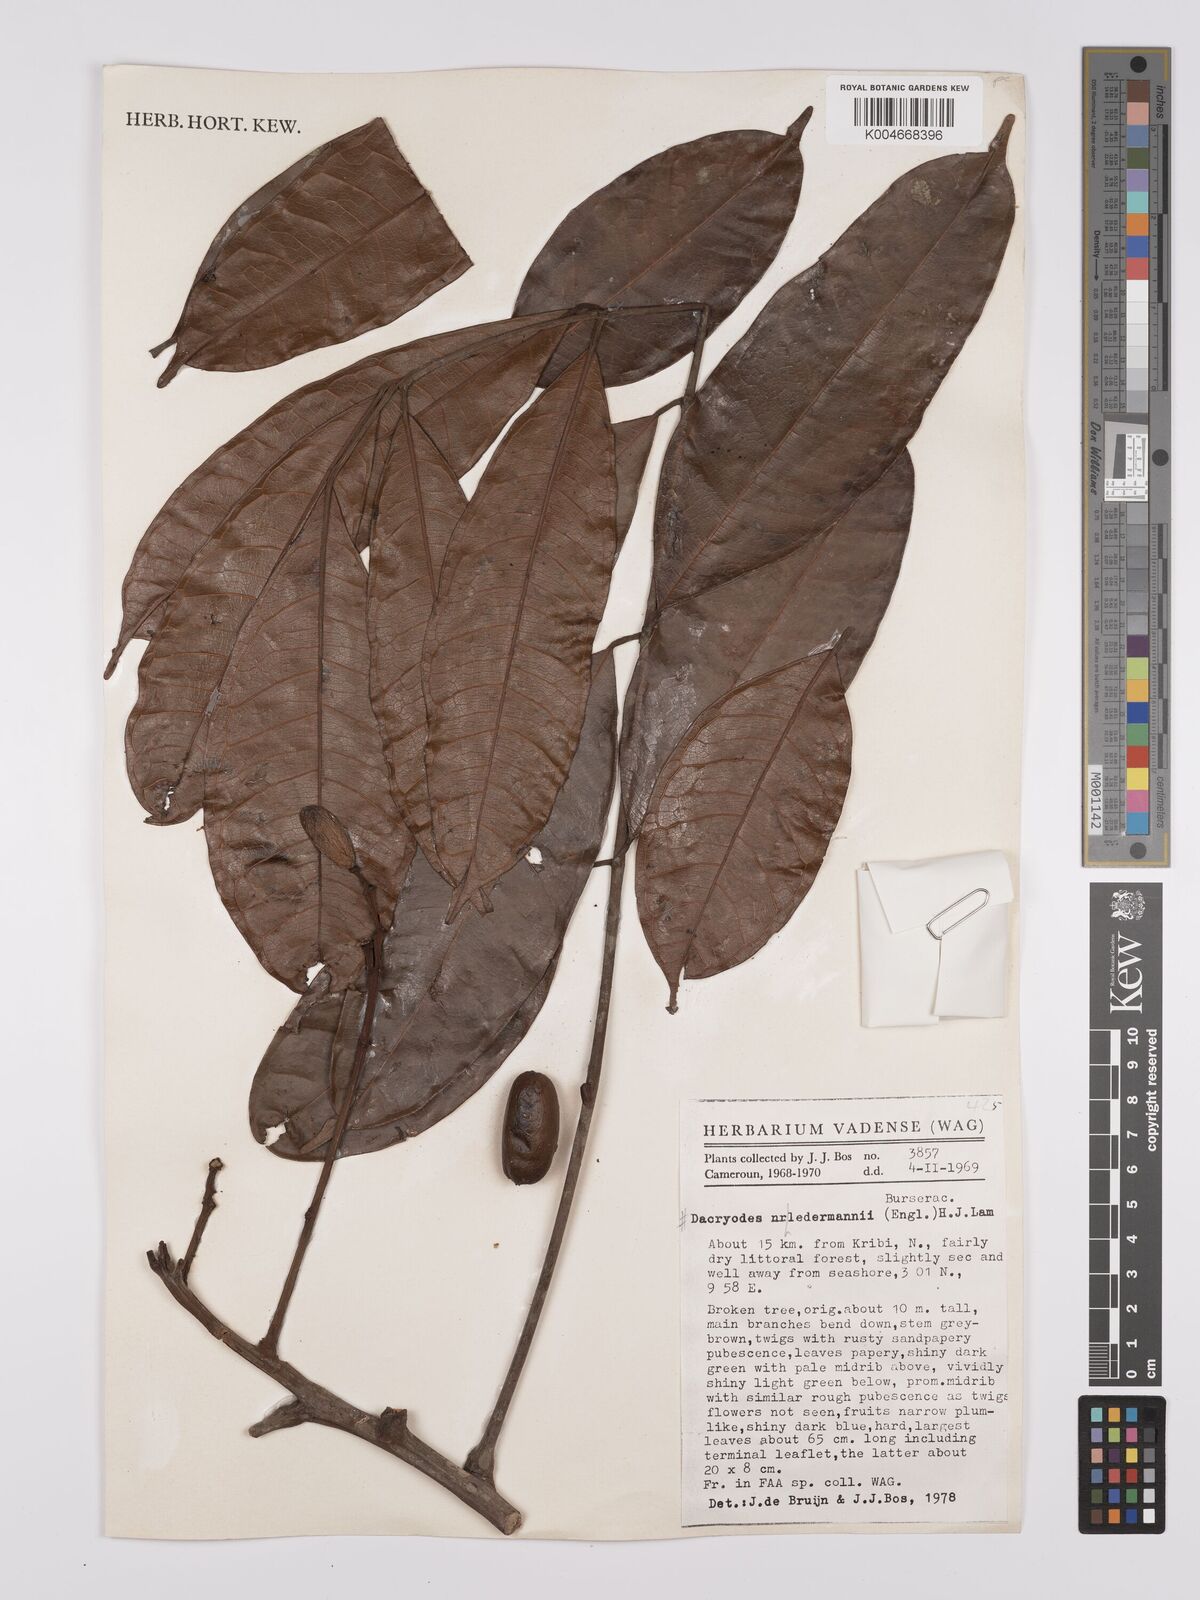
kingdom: Plantae
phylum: Tracheophyta
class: Magnoliopsida
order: Sapindales
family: Burseraceae
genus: Pachylobus
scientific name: Pachylobus ledermannii
